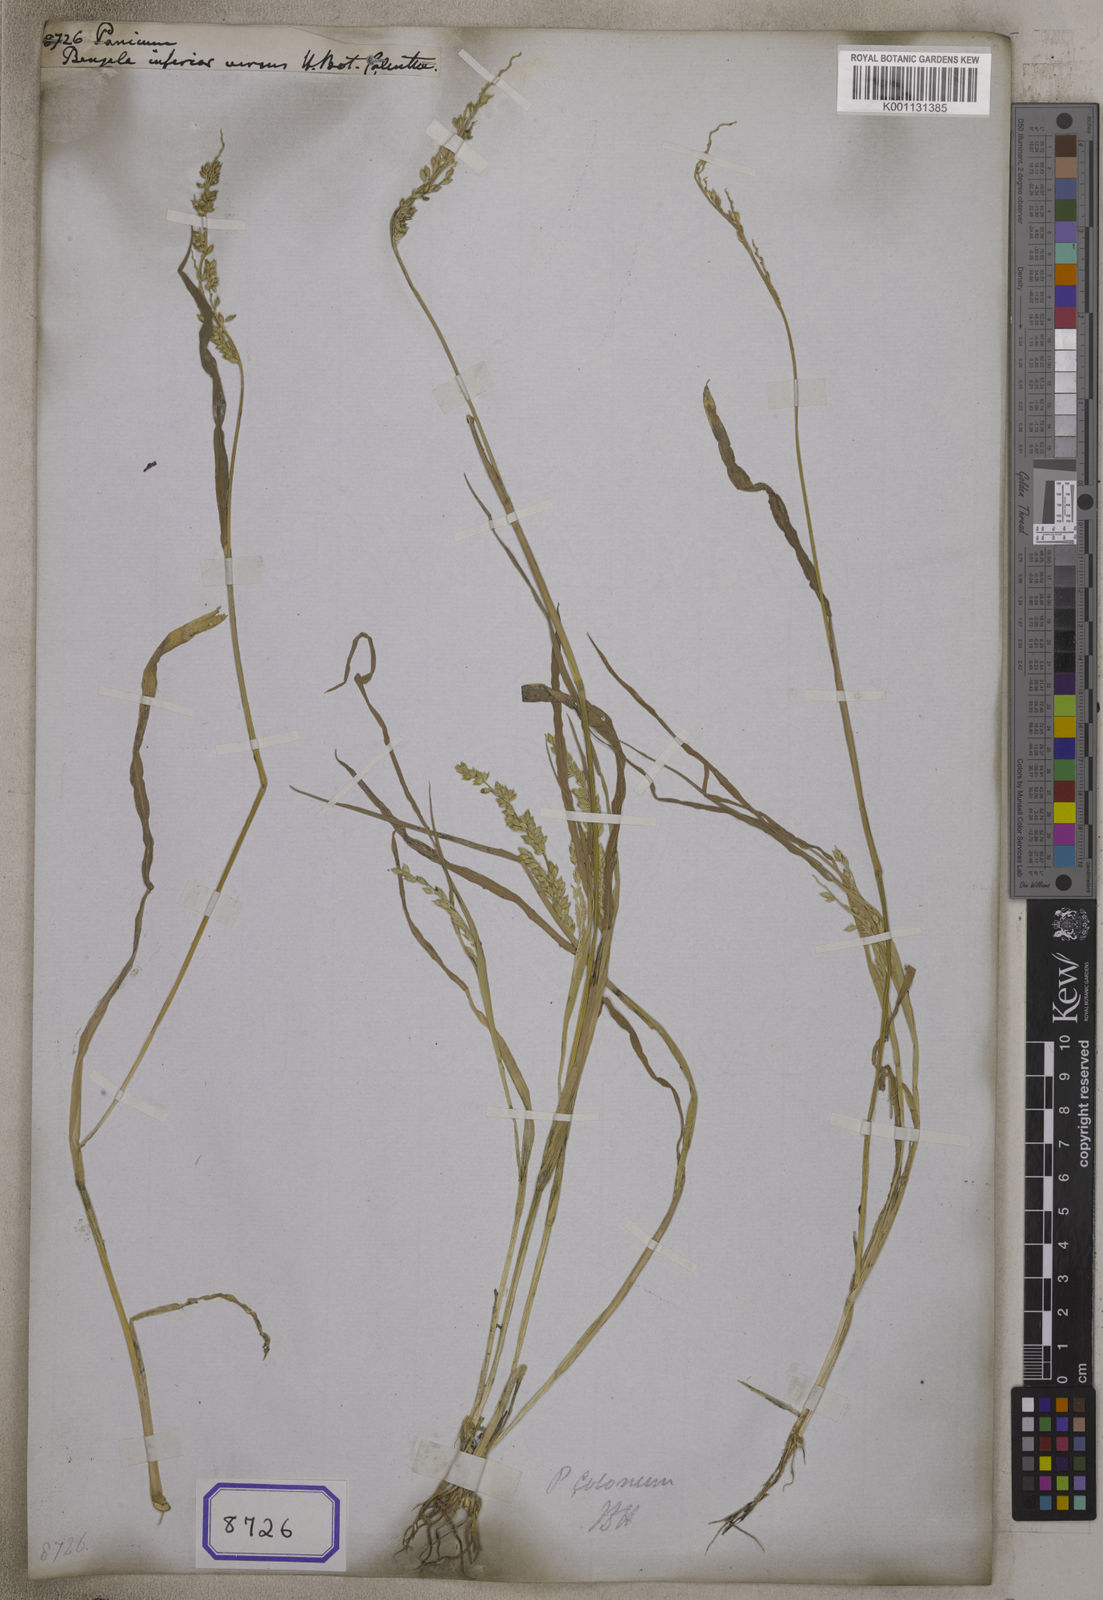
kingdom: Plantae
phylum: Tracheophyta
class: Liliopsida
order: Poales
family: Poaceae
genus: Panicum
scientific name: Panicum
